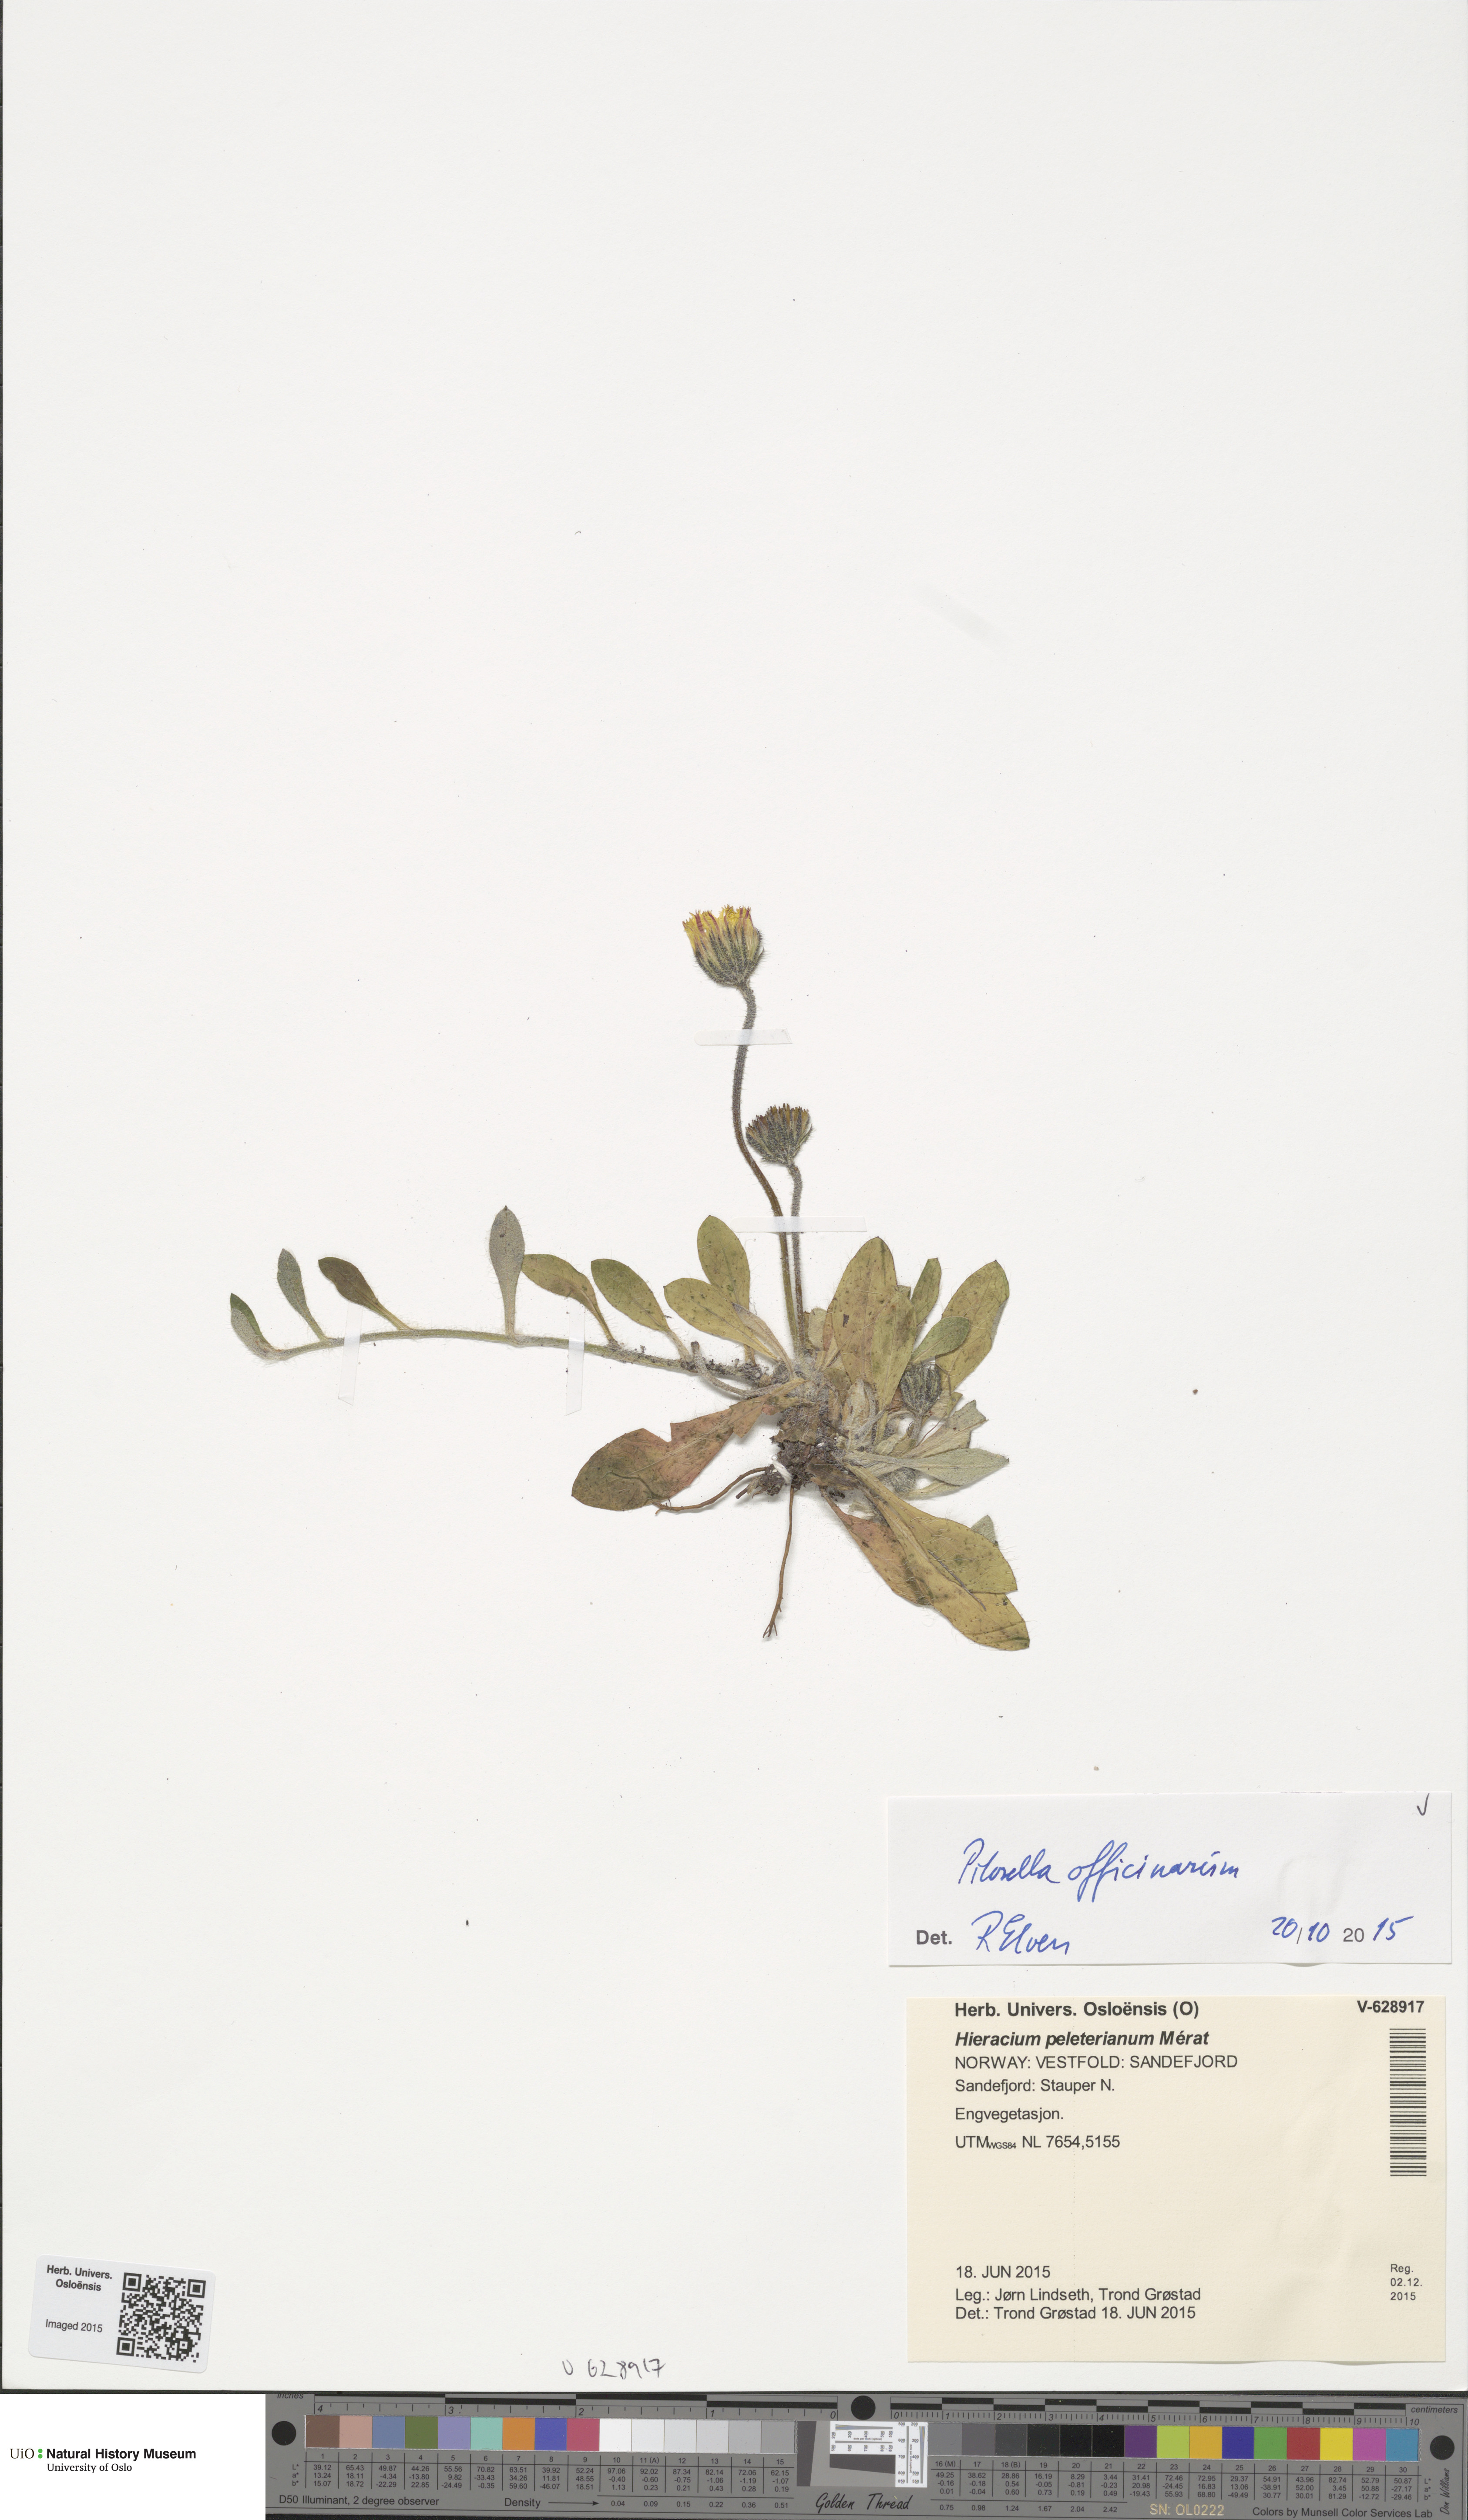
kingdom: Plantae
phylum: Tracheophyta
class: Magnoliopsida
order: Asterales
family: Asteraceae
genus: Pilosella
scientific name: Pilosella officinarum
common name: Mouse-ear hawkweed
